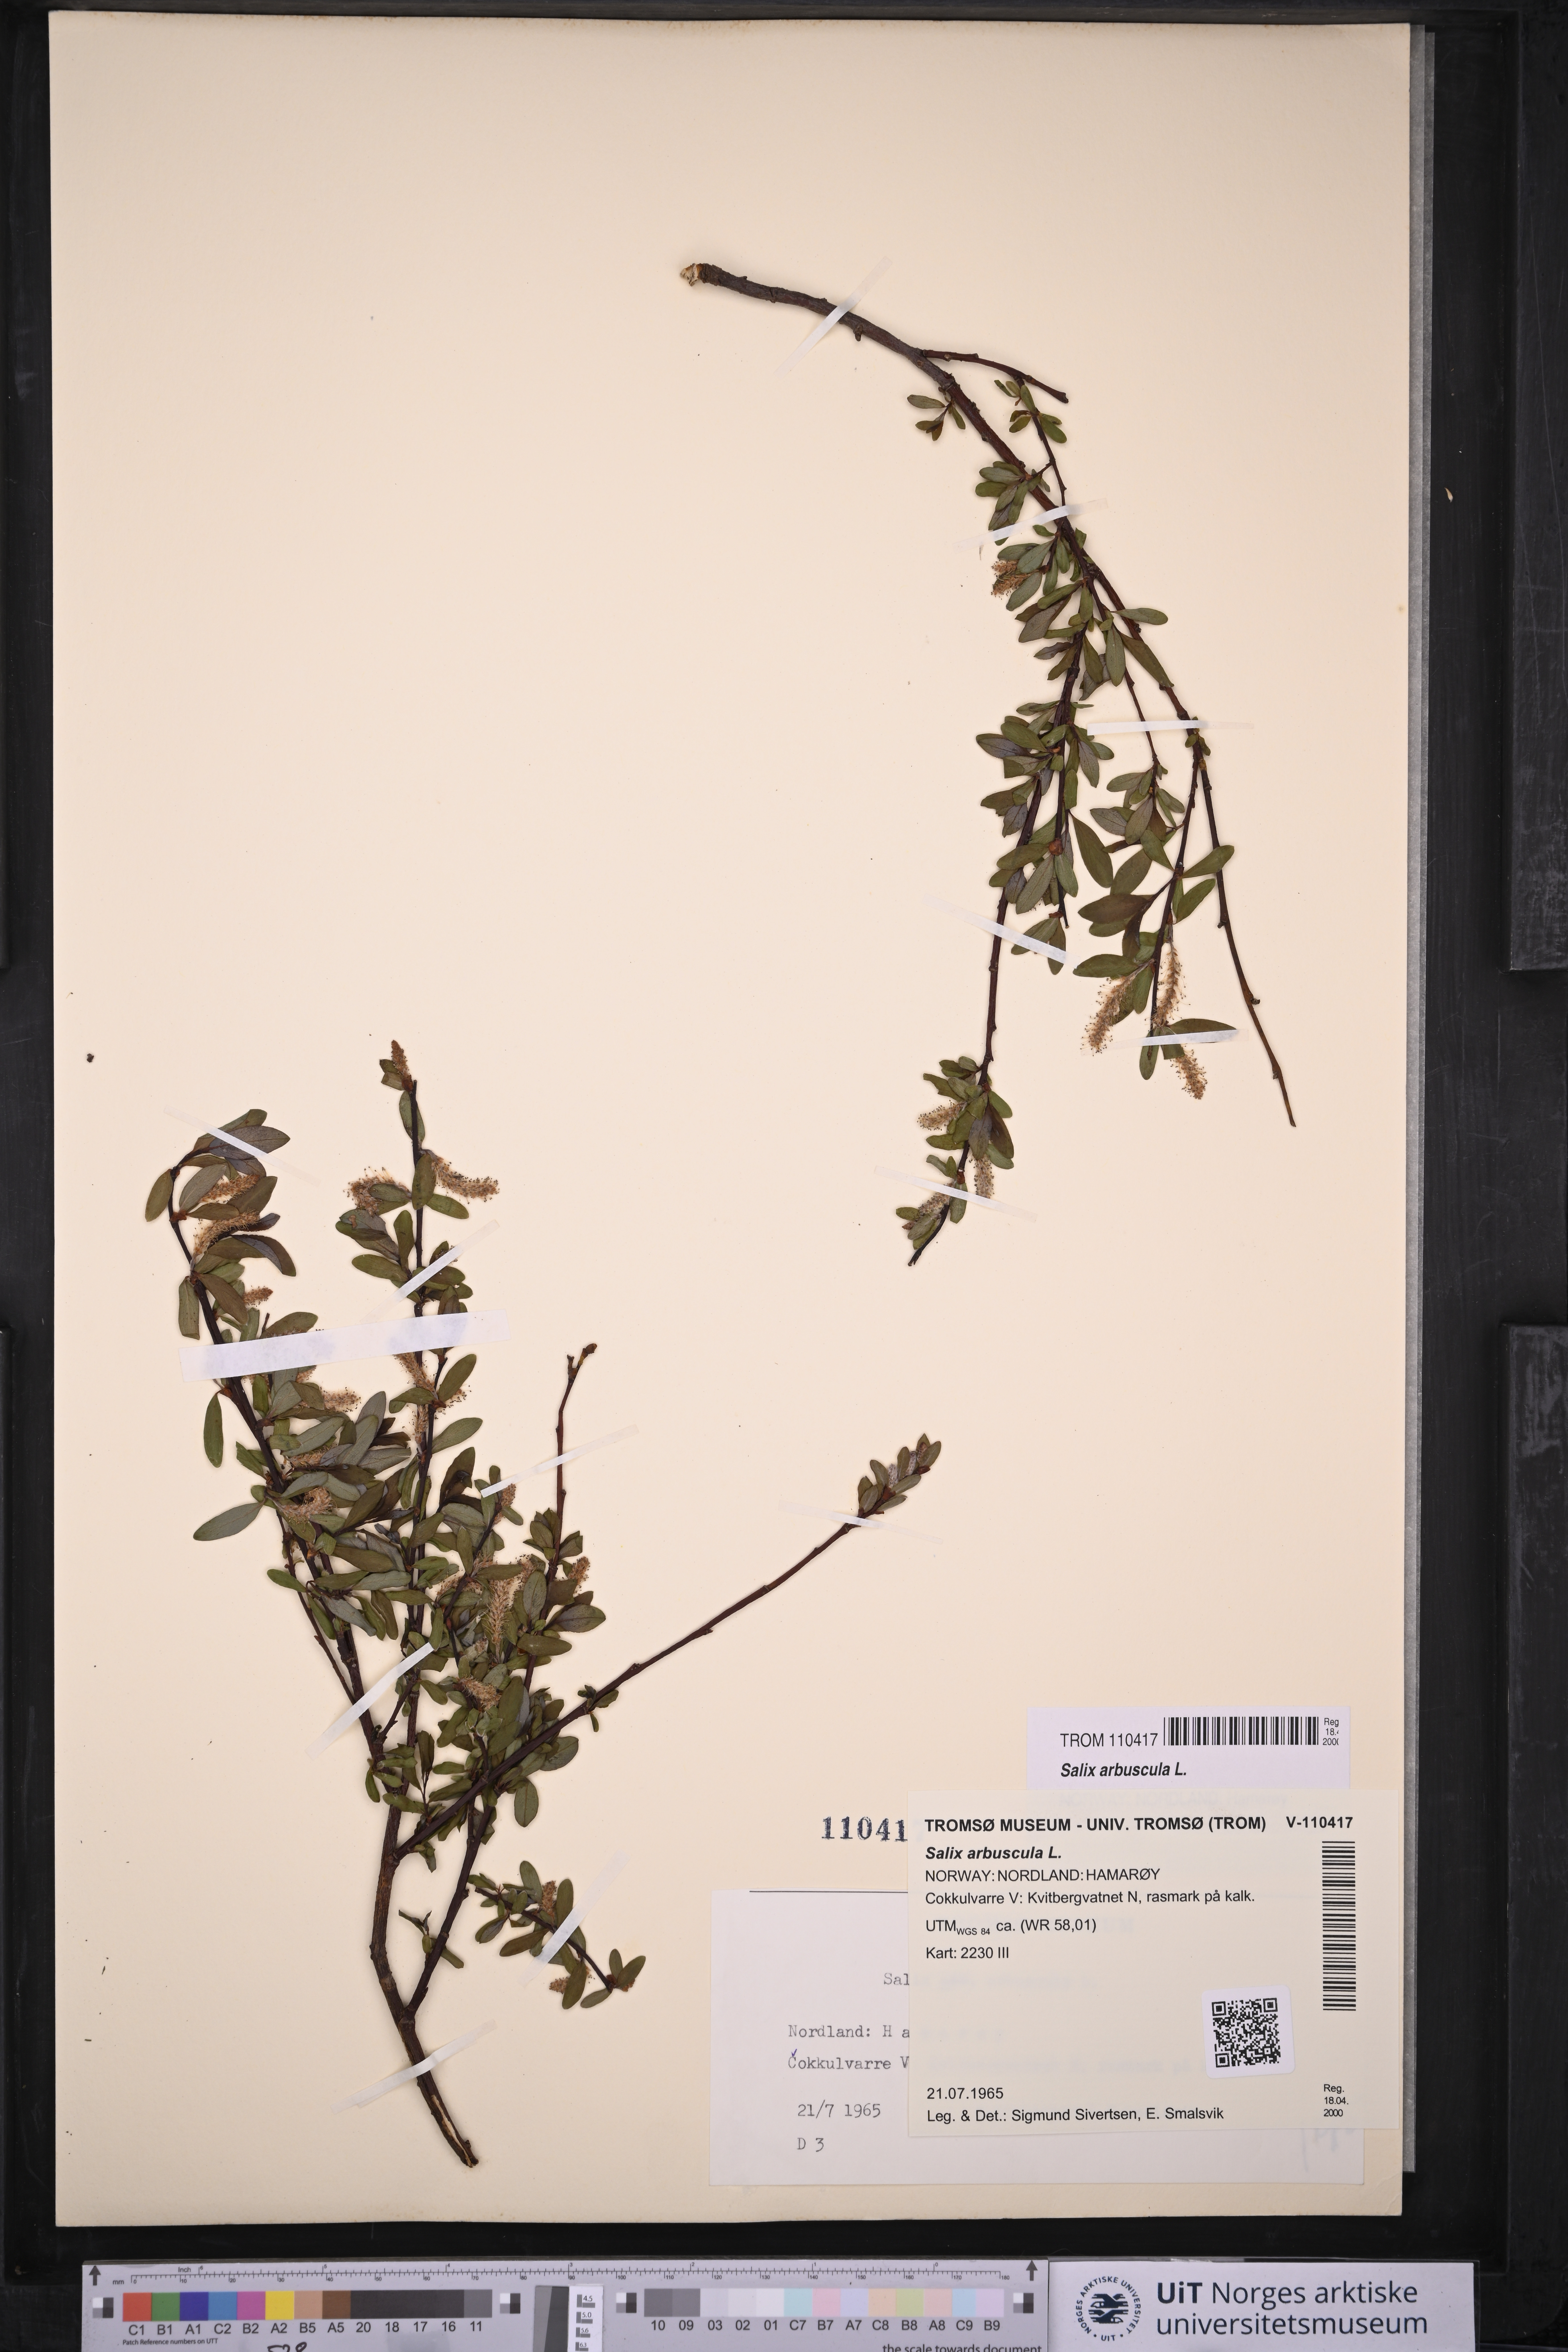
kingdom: Plantae
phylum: Tracheophyta
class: Magnoliopsida
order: Malpighiales
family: Salicaceae
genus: Salix
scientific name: Salix arbuscula
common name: Mountain willow
